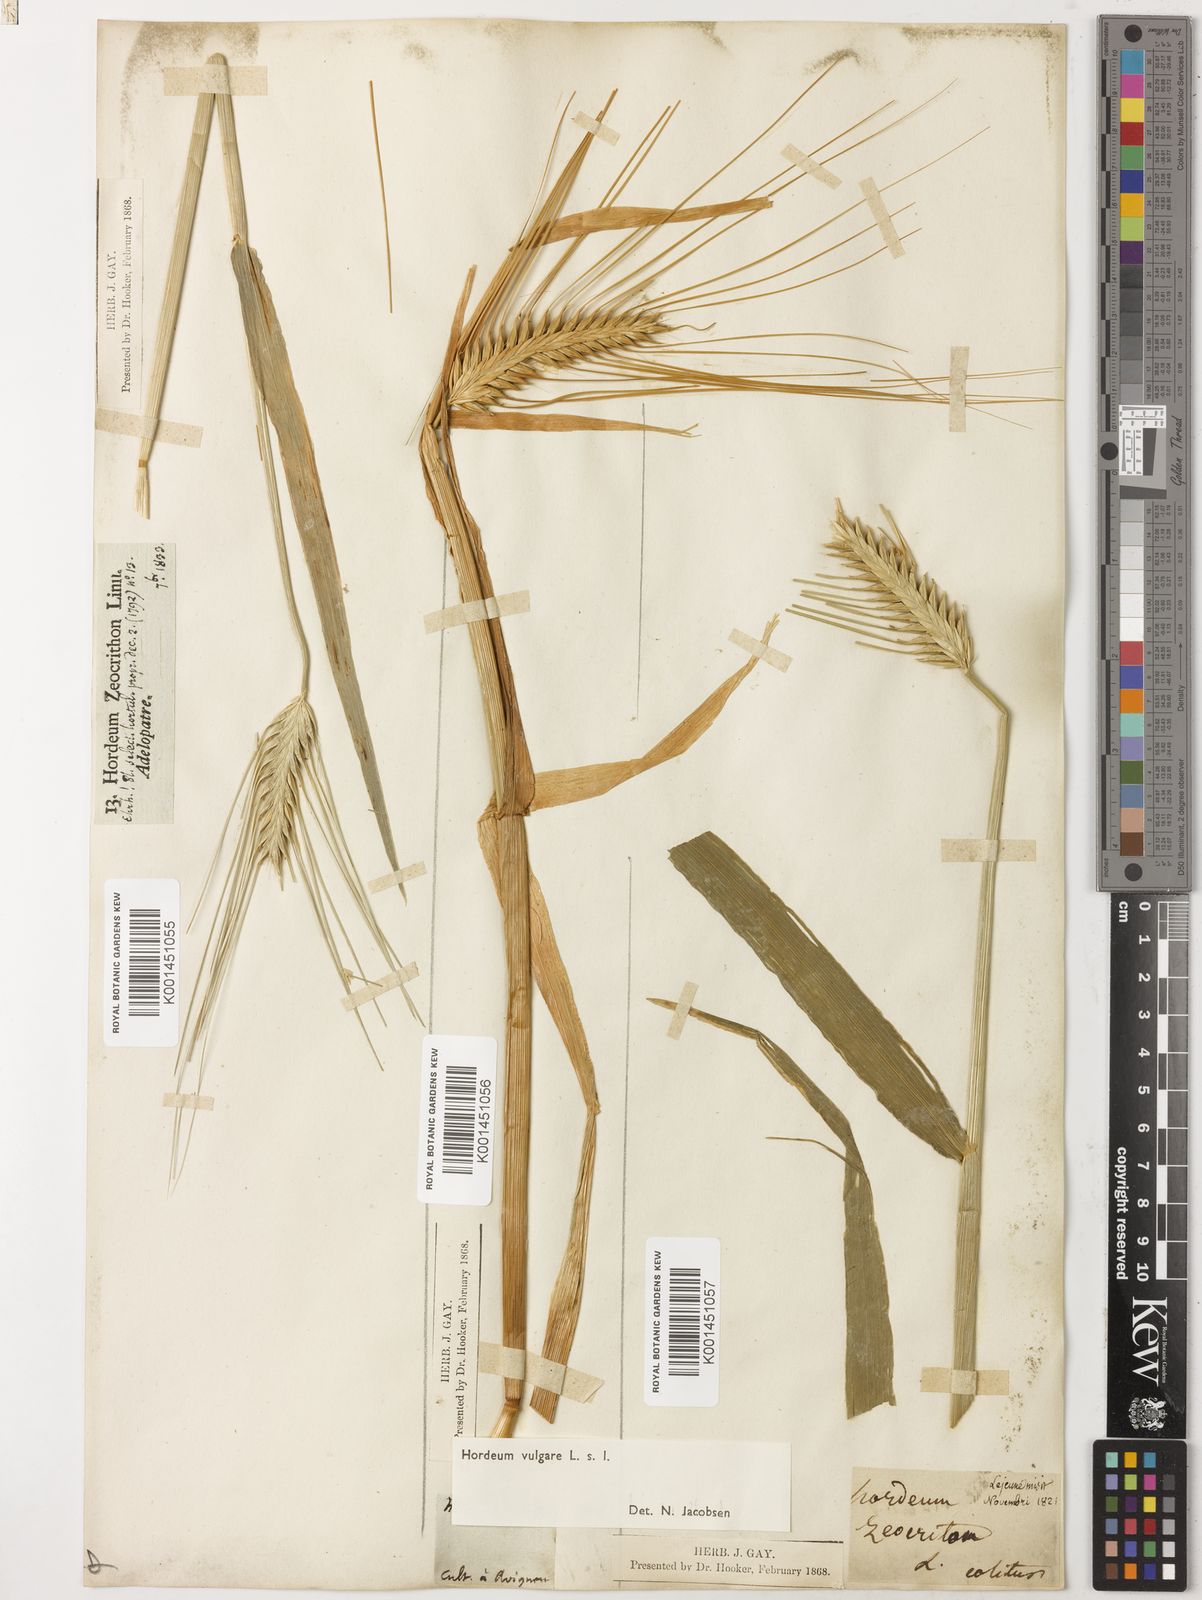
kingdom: Plantae
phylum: Tracheophyta
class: Liliopsida
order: Poales
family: Poaceae
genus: Hordeum
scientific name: Hordeum vulgare
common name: Common barley
